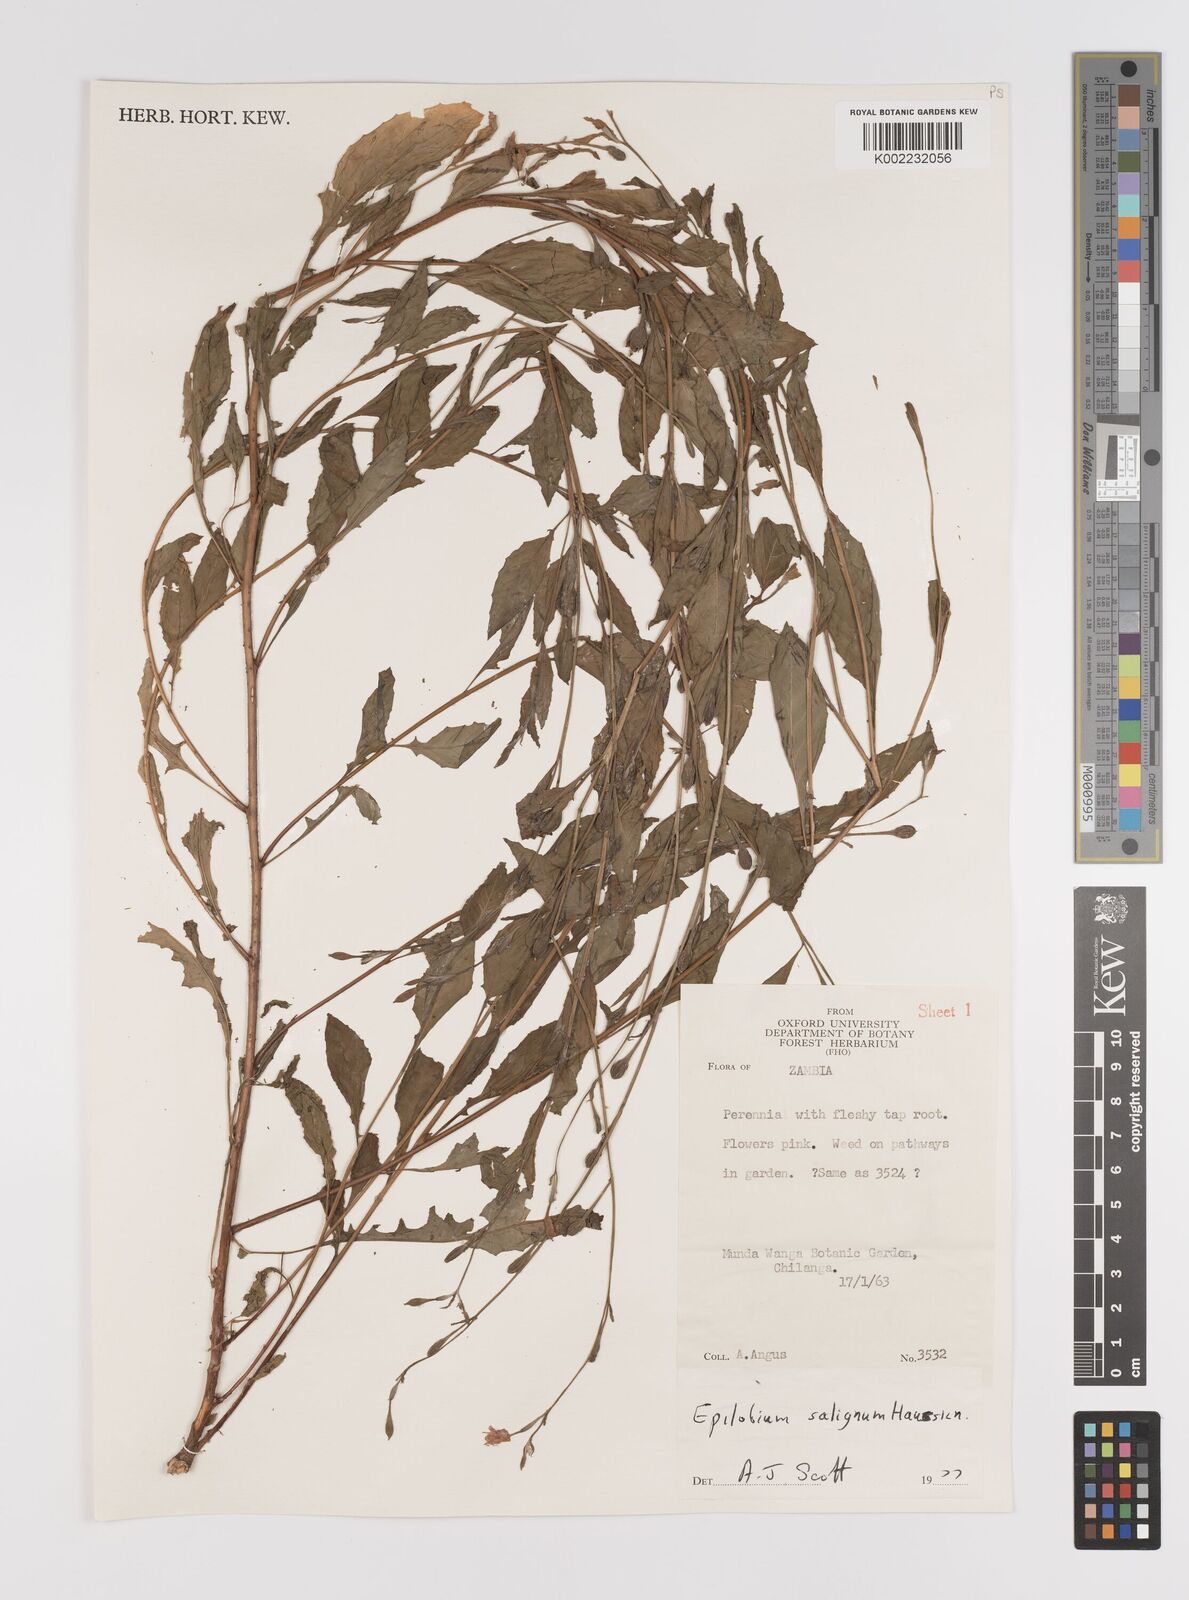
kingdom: Plantae
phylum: Tracheophyta
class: Magnoliopsida
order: Myrtales
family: Onagraceae
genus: Epilobium
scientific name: Epilobium salignum
